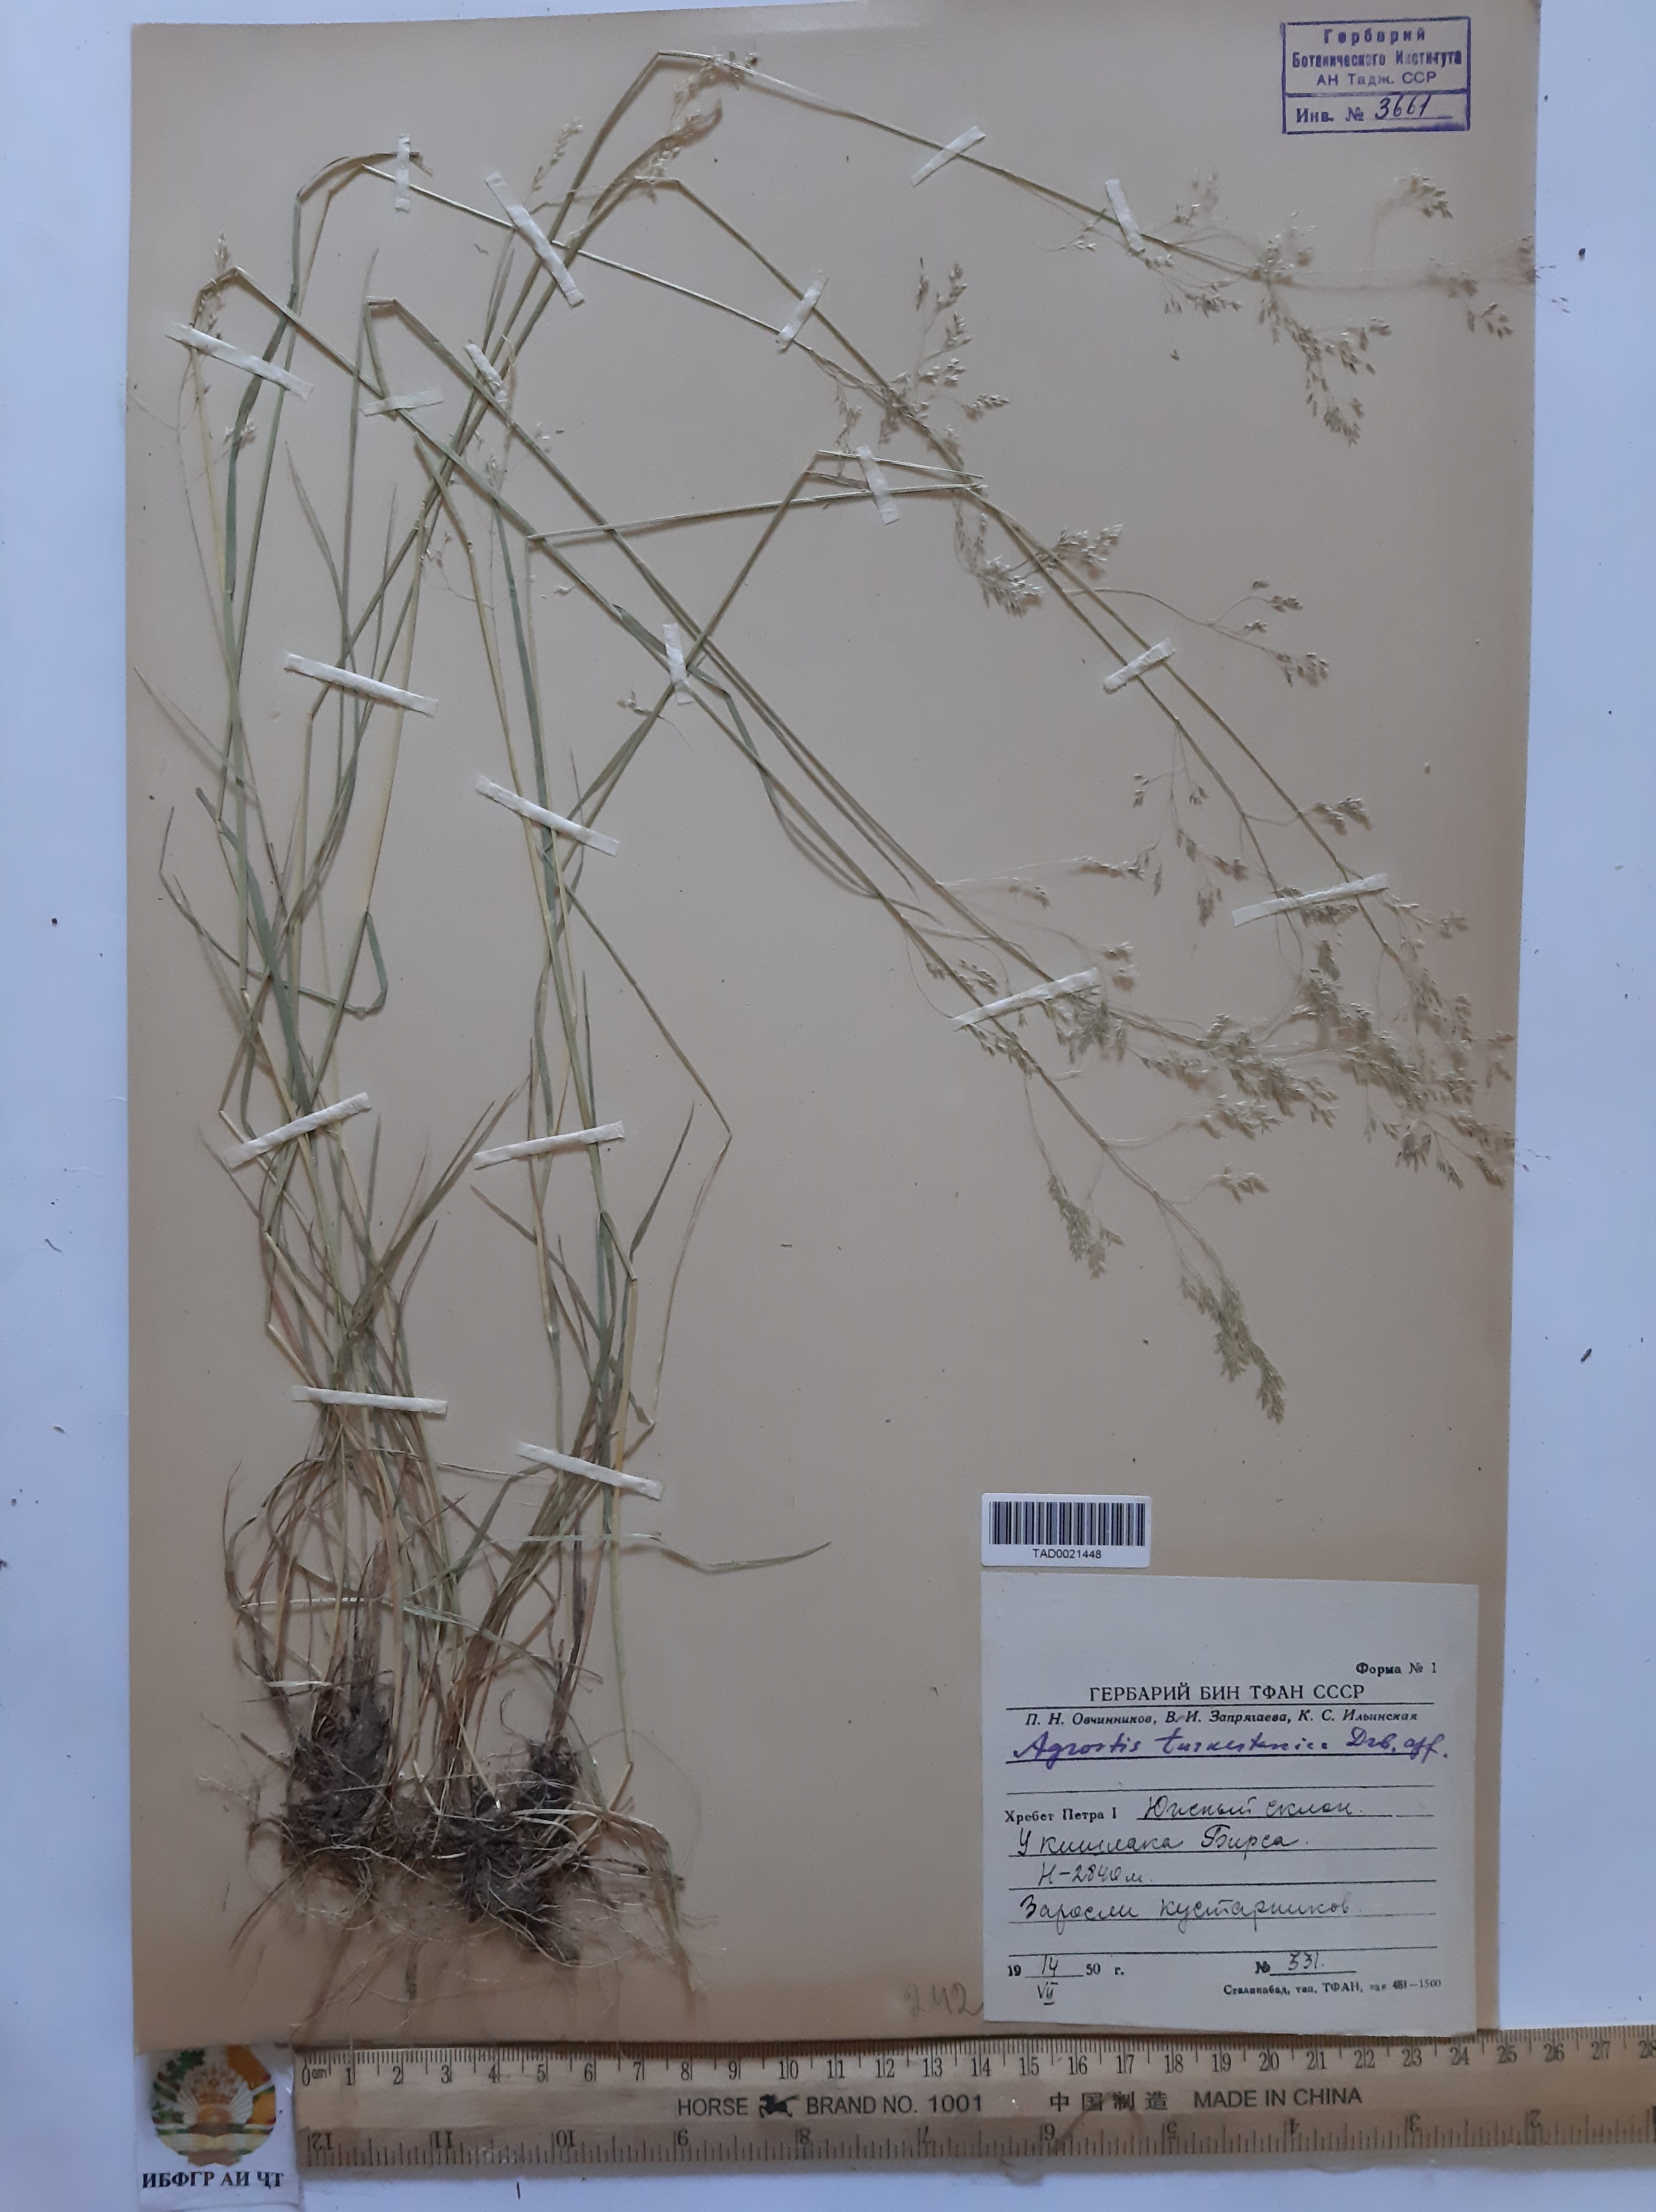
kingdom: Plantae
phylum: Tracheophyta
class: Liliopsida
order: Poales
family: Poaceae
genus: Agrostis
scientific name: Agrostis vinealis
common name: Brown bent
